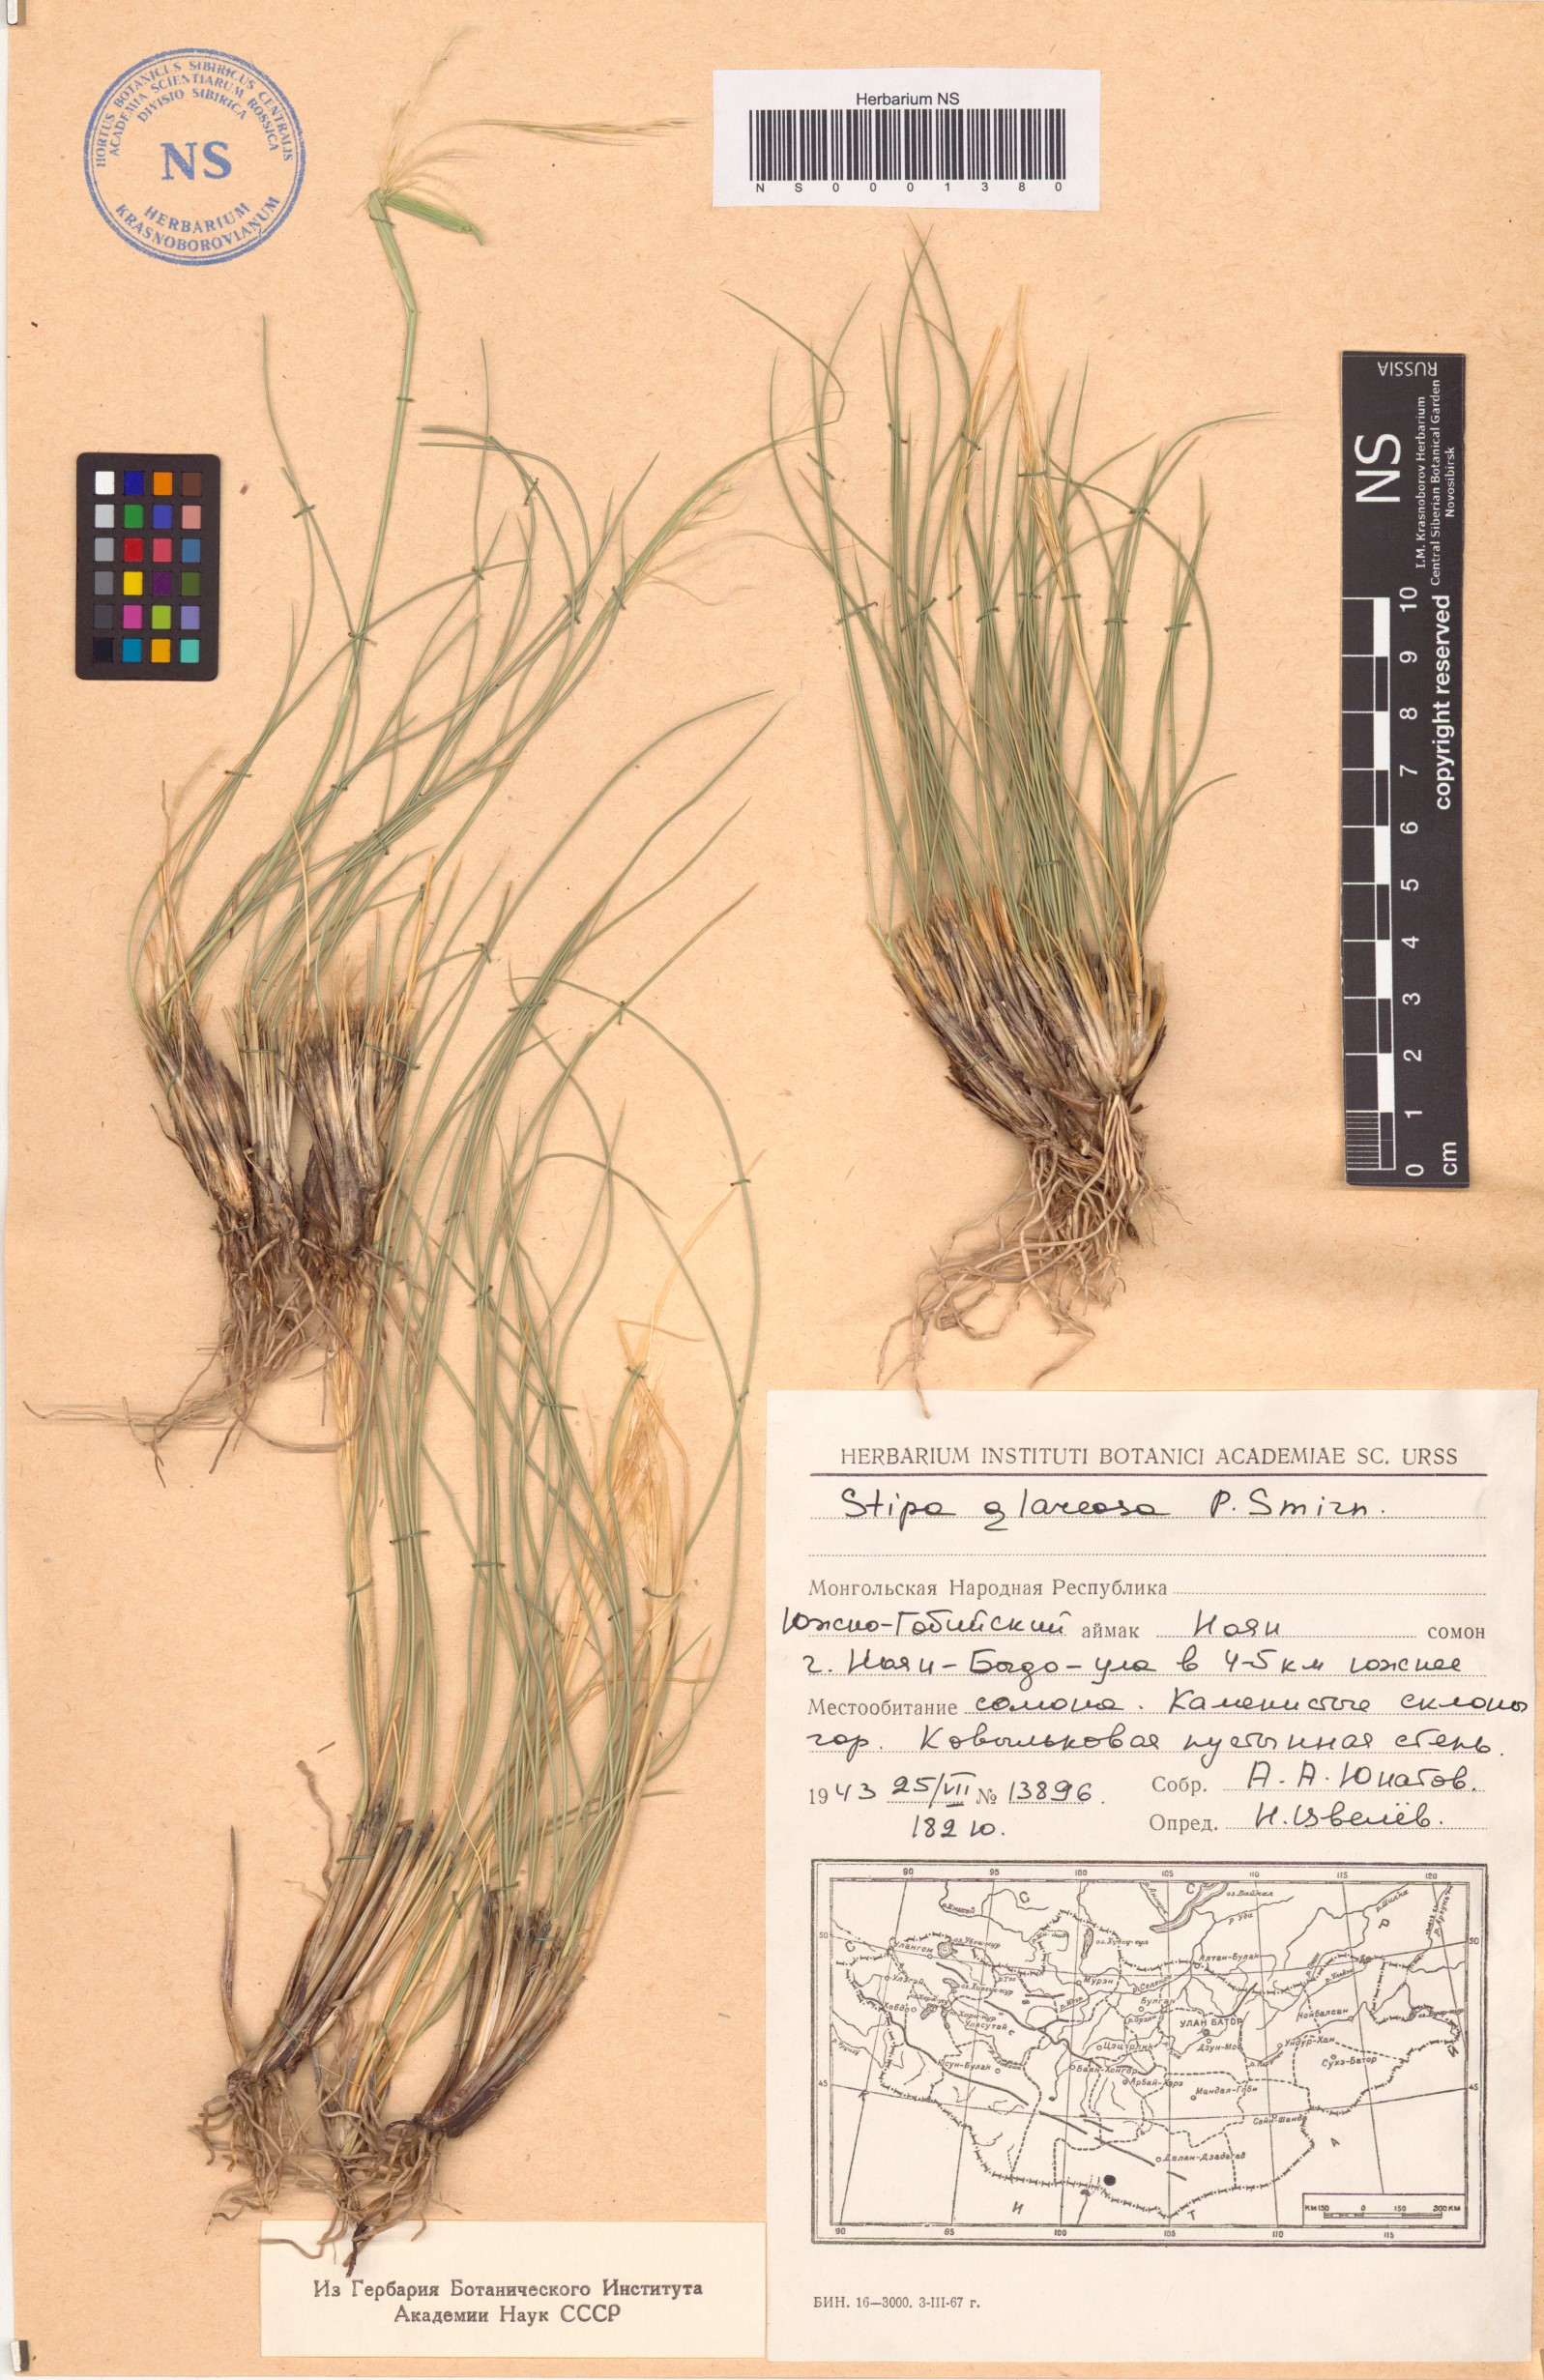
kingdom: Plantae
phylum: Tracheophyta
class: Liliopsida
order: Poales
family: Poaceae
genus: Stipa
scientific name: Stipa glareosa
